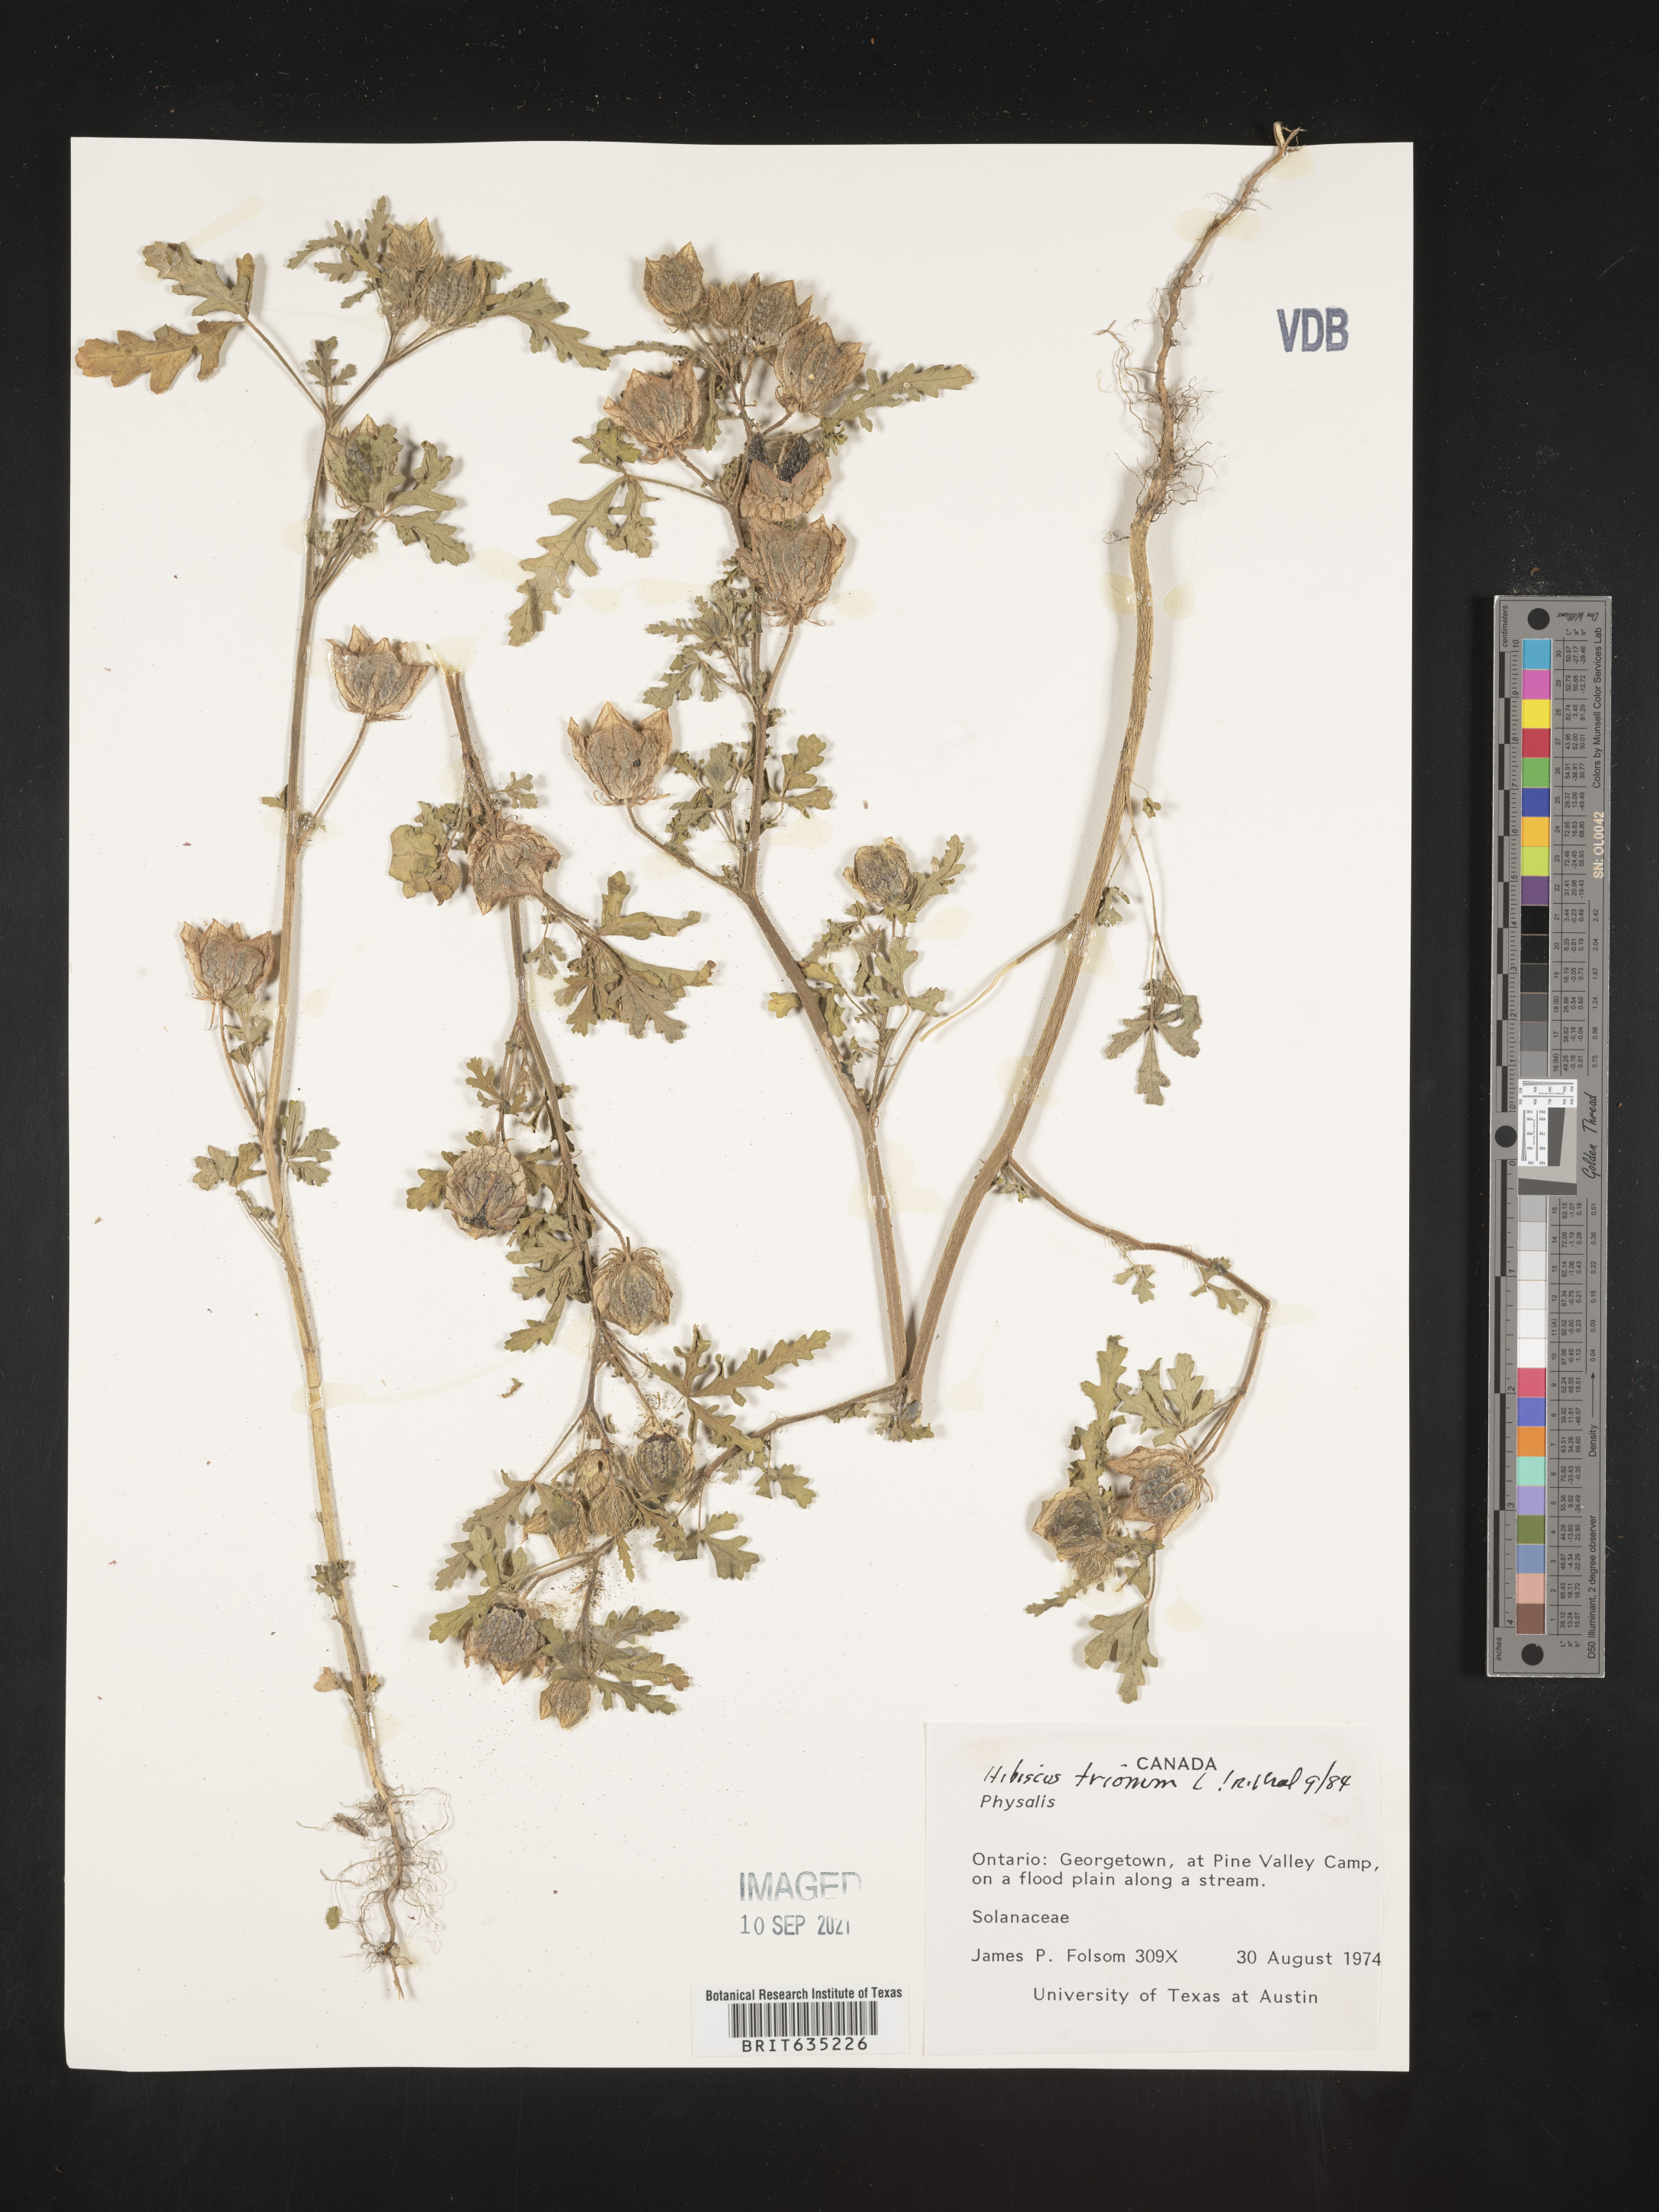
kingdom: Plantae
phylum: Tracheophyta
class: Magnoliopsida
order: Malvales
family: Malvaceae
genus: Hibiscus
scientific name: Hibiscus
